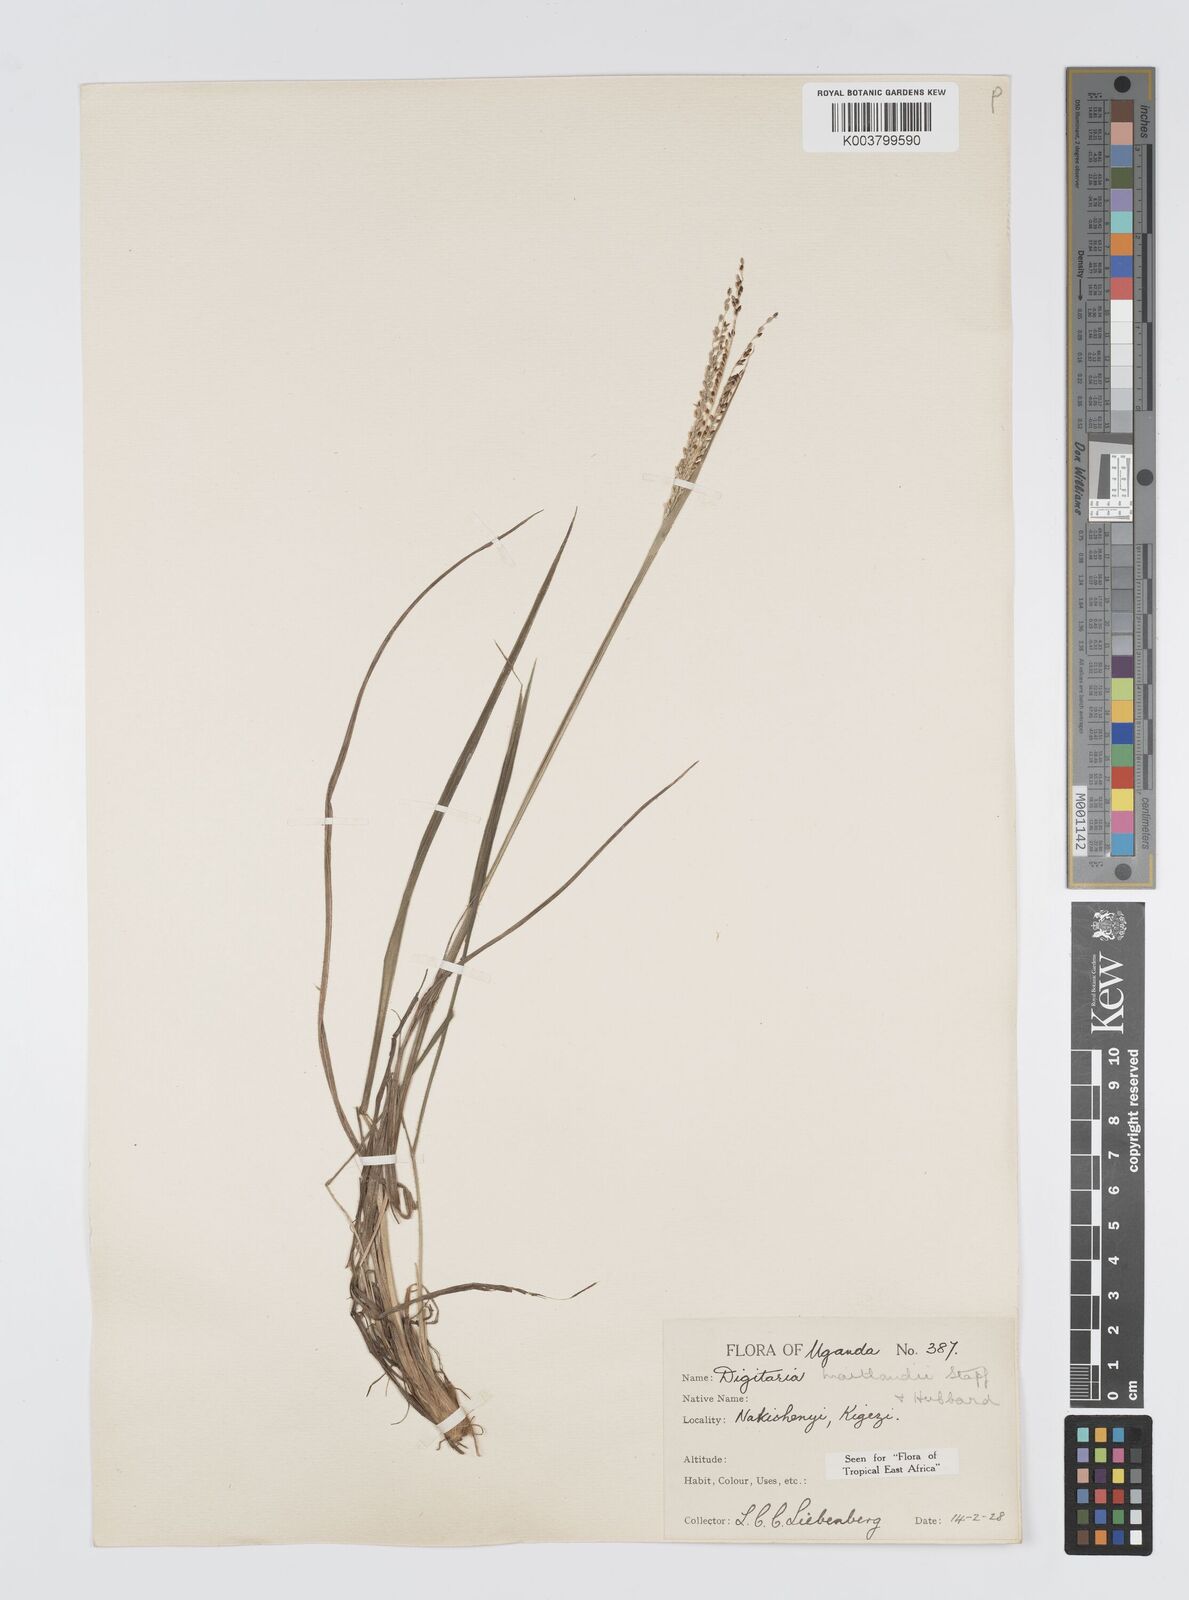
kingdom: Plantae
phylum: Tracheophyta
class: Liliopsida
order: Poales
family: Poaceae
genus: Digitaria
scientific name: Digitaria maitlandii
